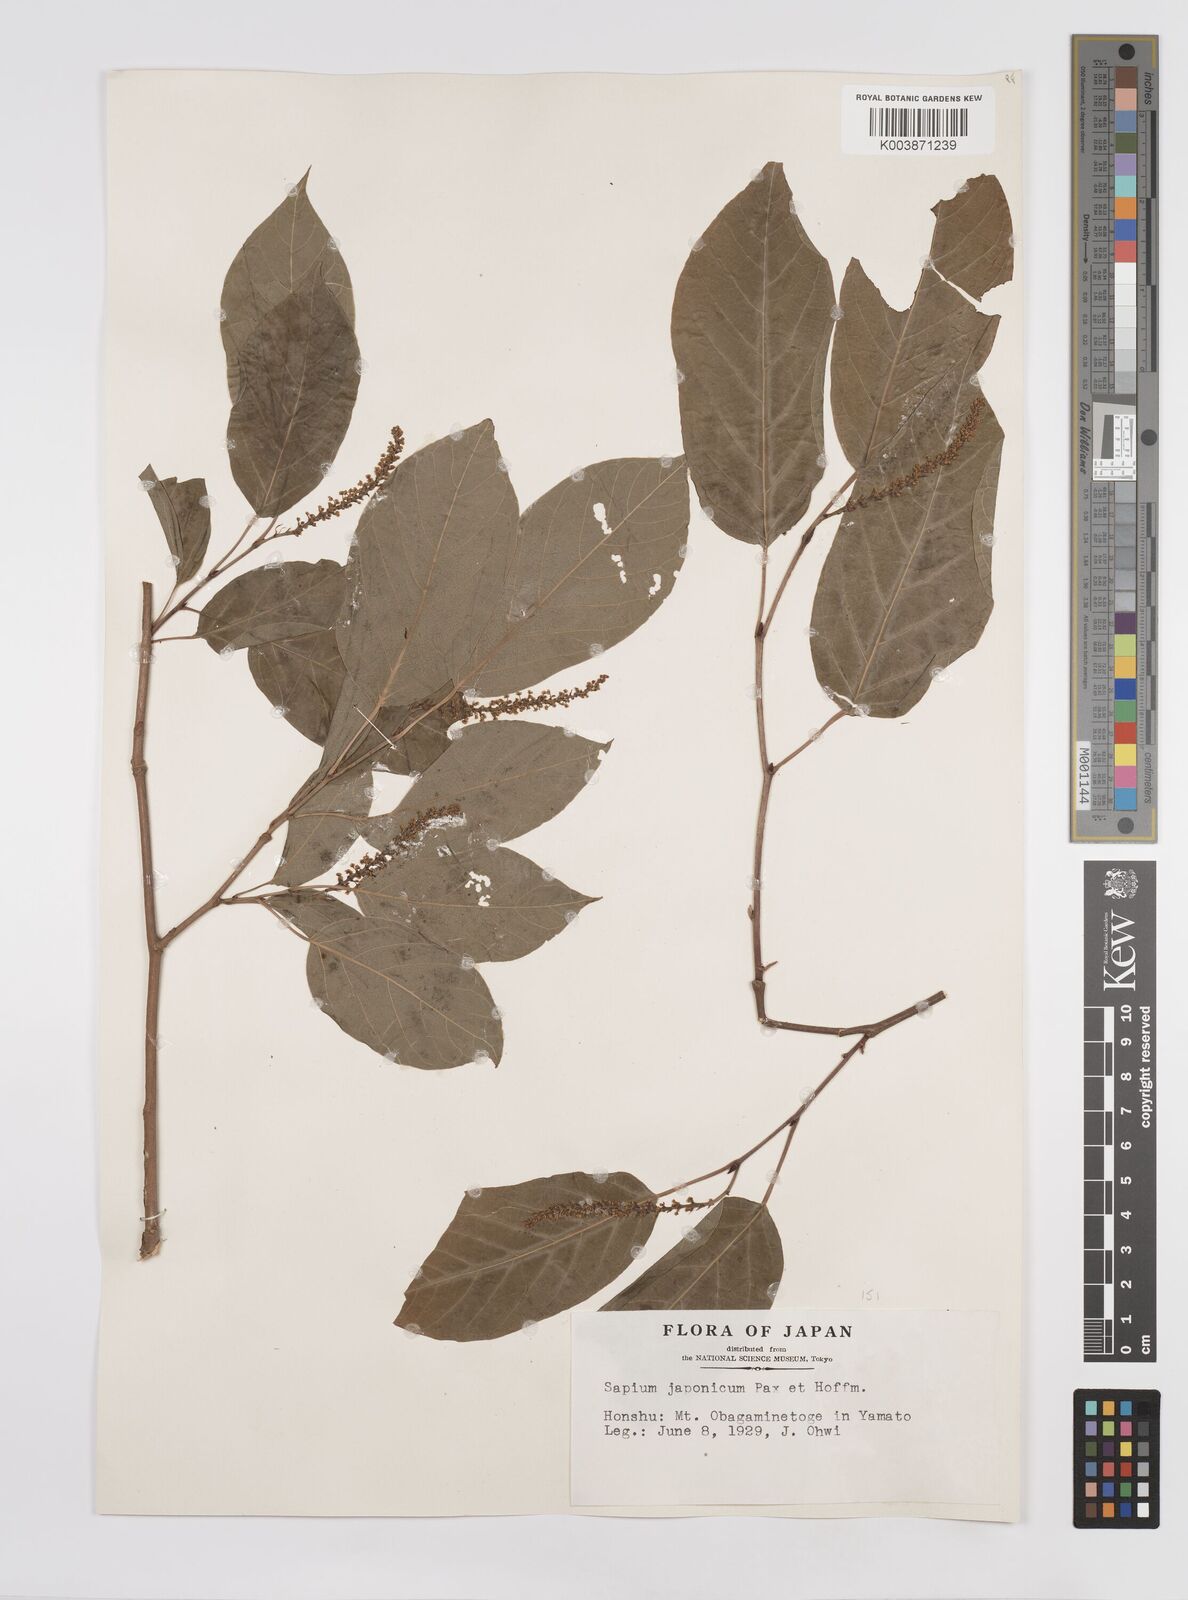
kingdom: Plantae
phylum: Tracheophyta
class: Magnoliopsida
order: Malpighiales
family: Euphorbiaceae
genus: Neoshirakia
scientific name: Neoshirakia japonica
